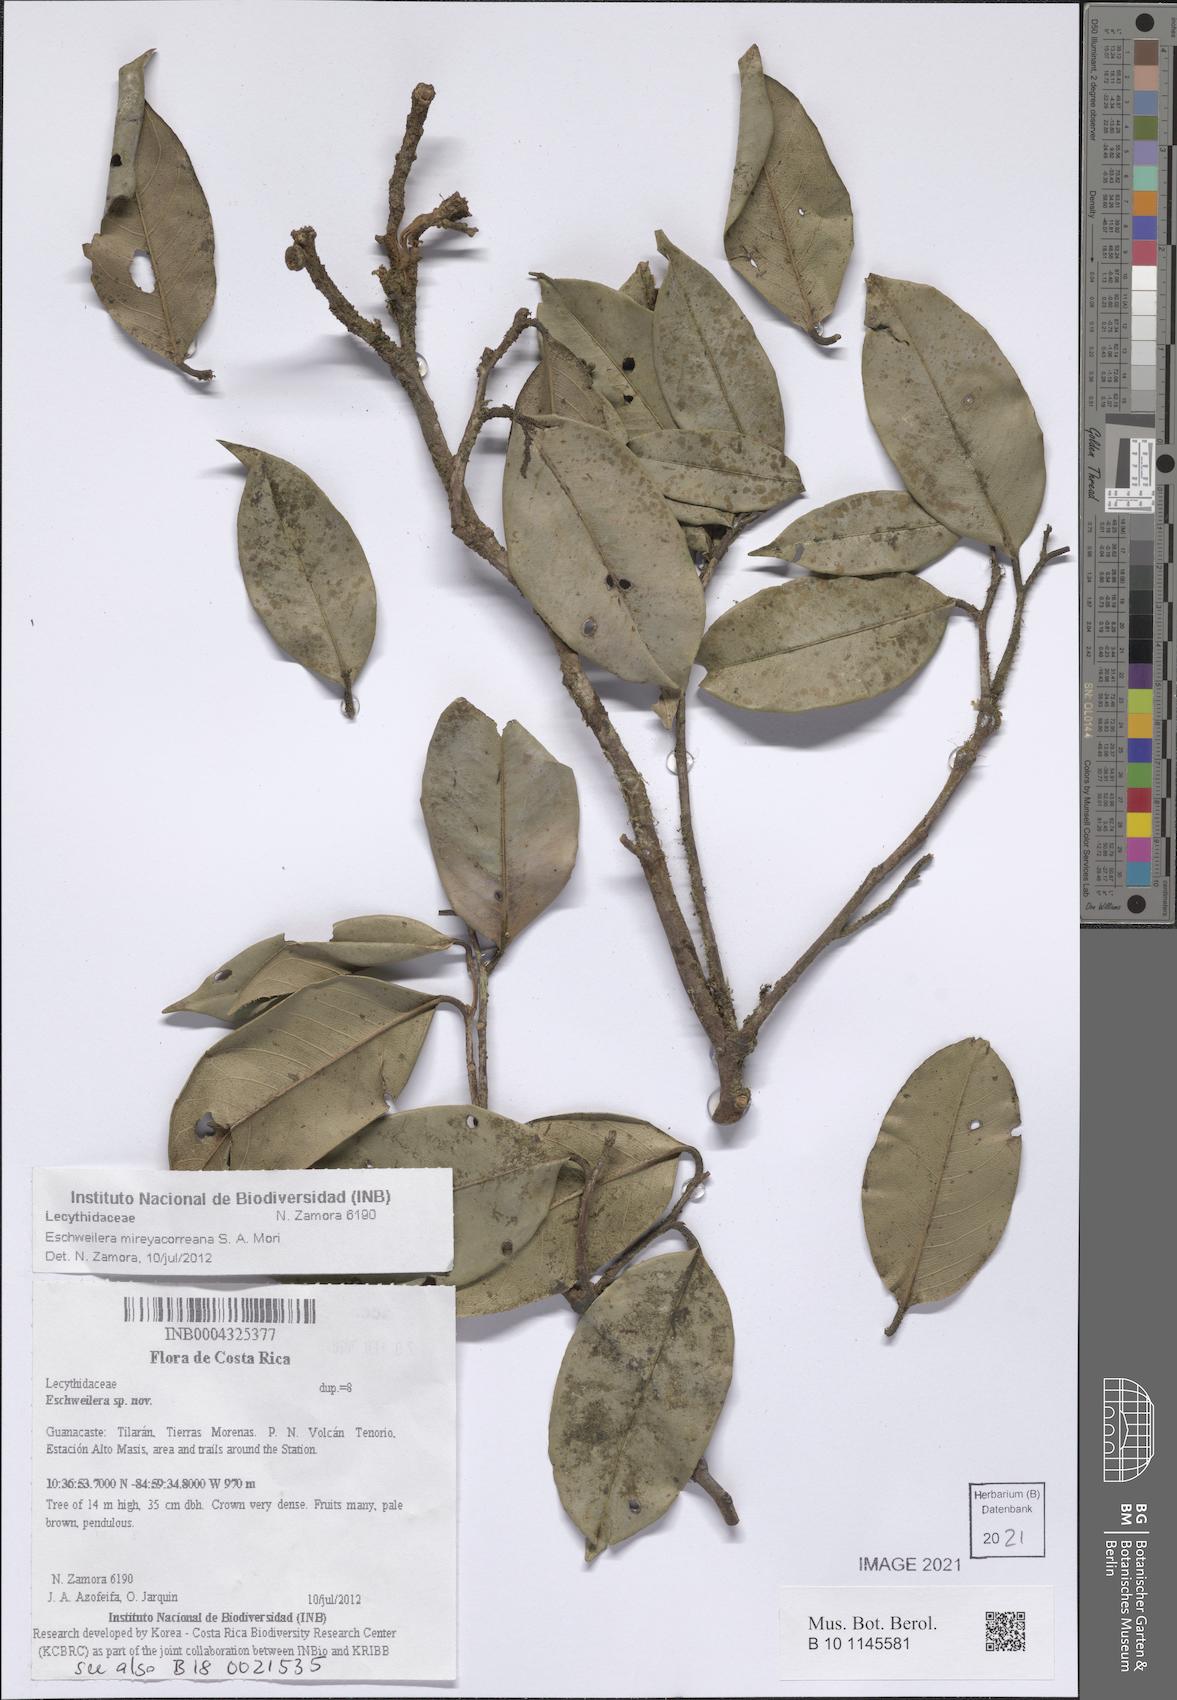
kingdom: Plantae
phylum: Tracheophyta
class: Magnoliopsida
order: Ericales
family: Lecythidaceae
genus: Eschweilera
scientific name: Eschweilera
